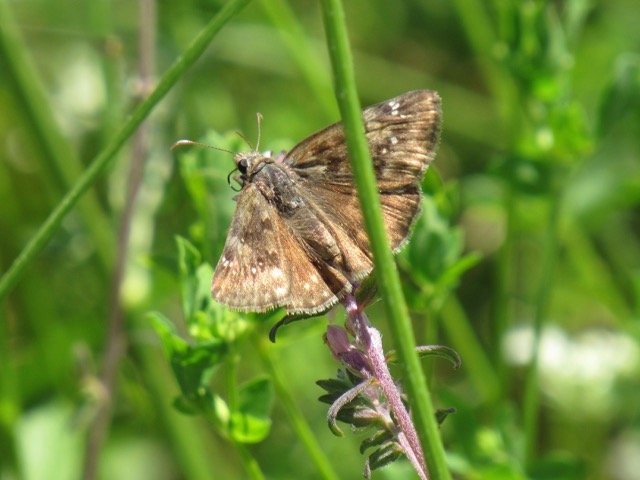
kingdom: Animalia
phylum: Arthropoda
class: Insecta
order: Lepidoptera
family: Hesperiidae
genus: Gesta
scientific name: Gesta
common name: Wild Indigo Duskywing
